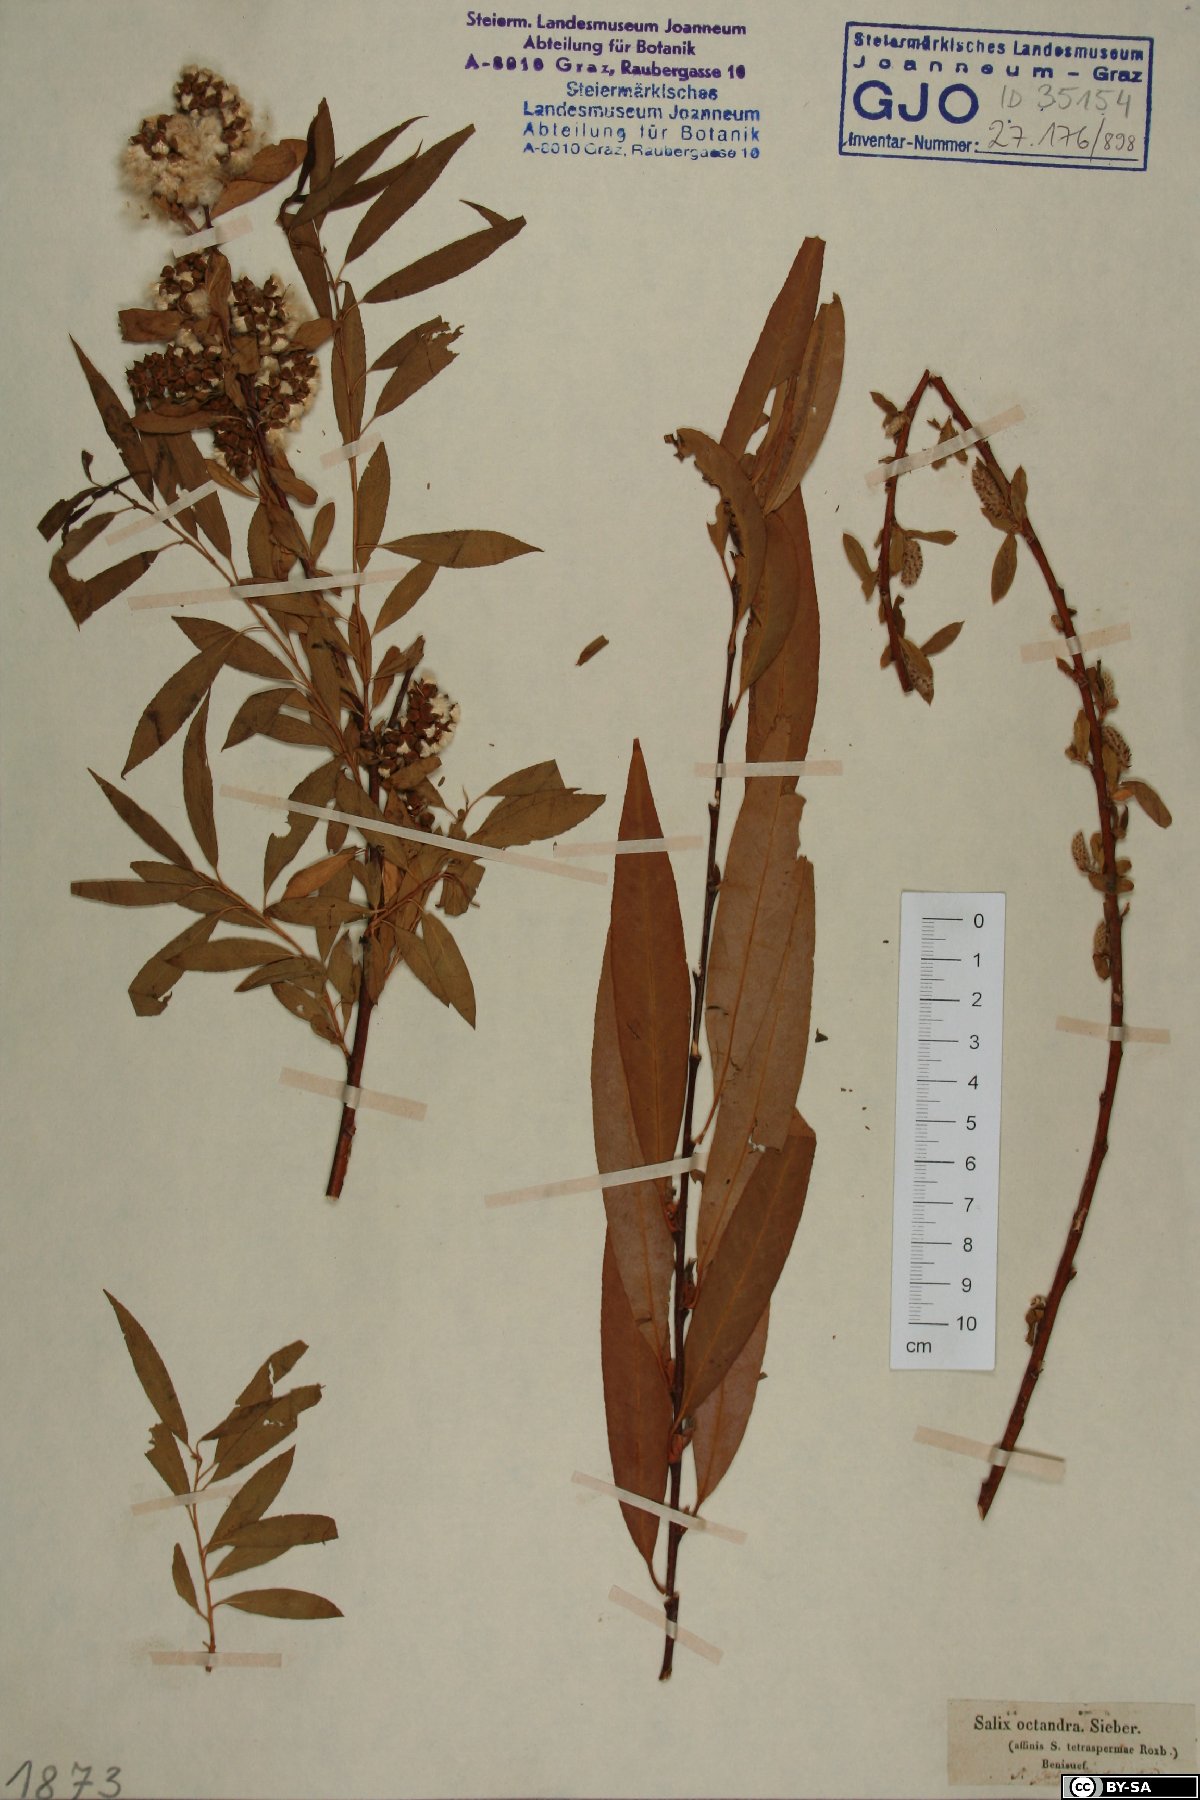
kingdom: Plantae
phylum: Tracheophyta
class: Magnoliopsida
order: Malpighiales
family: Salicaceae
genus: Salix
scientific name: Salix mucronata
